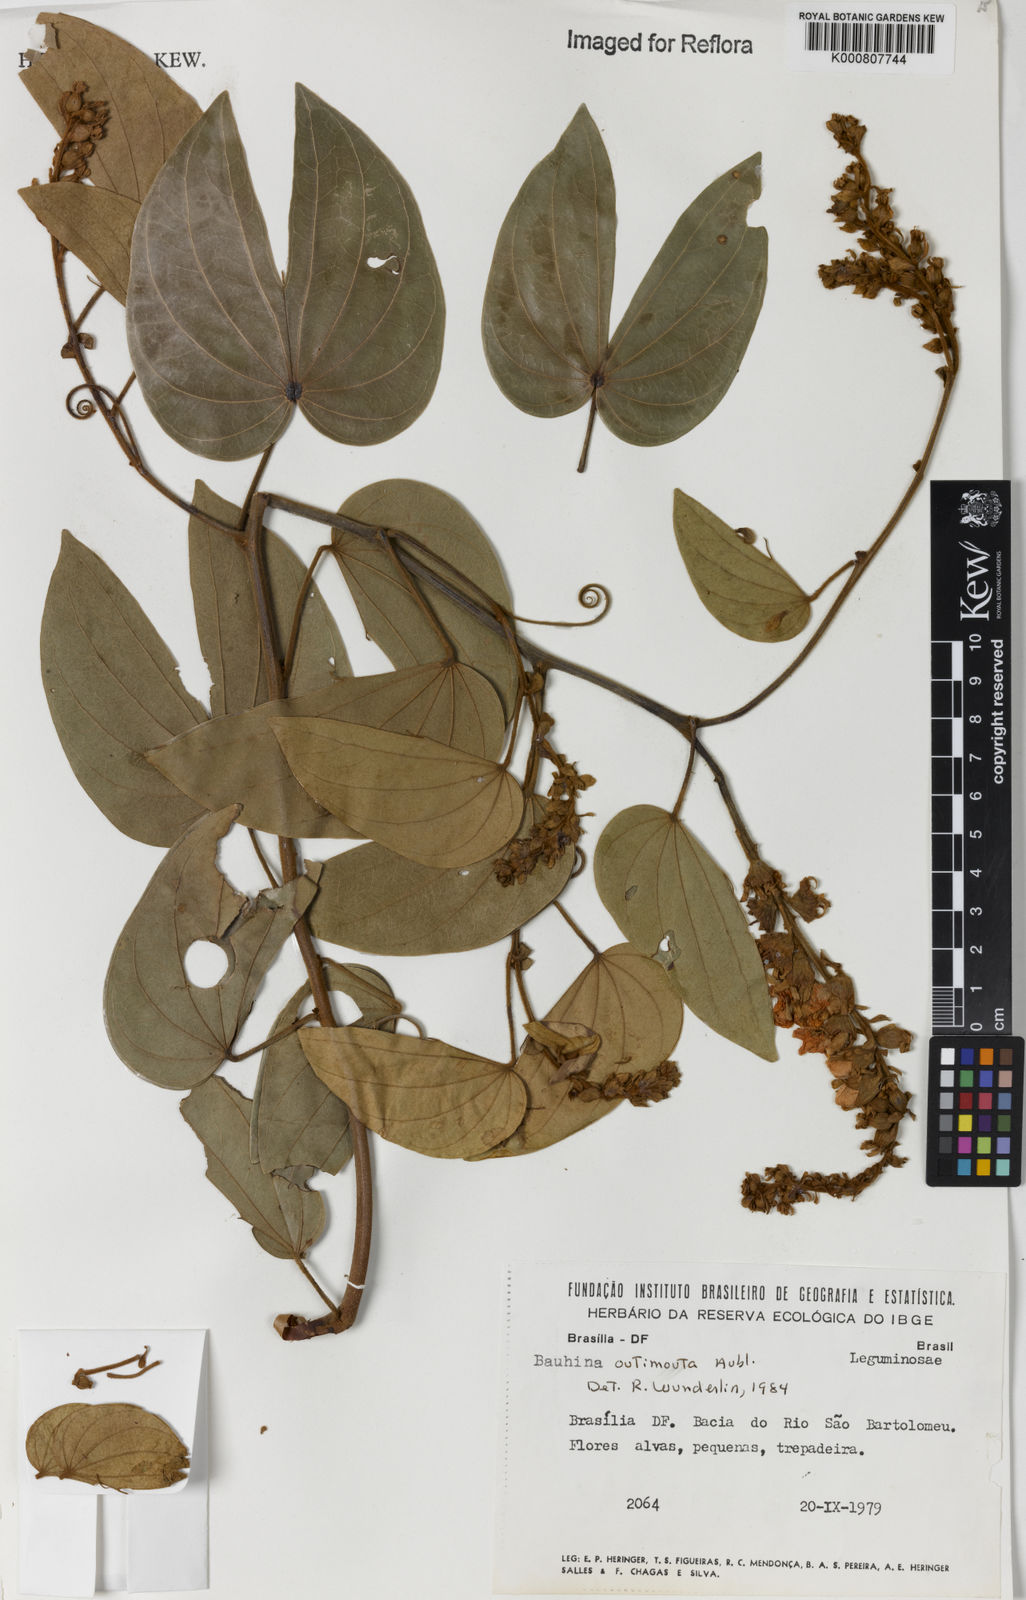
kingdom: Plantae
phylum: Tracheophyta
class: Magnoliopsida
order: Fabales
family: Fabaceae
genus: Schnella
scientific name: Schnella outimouta
